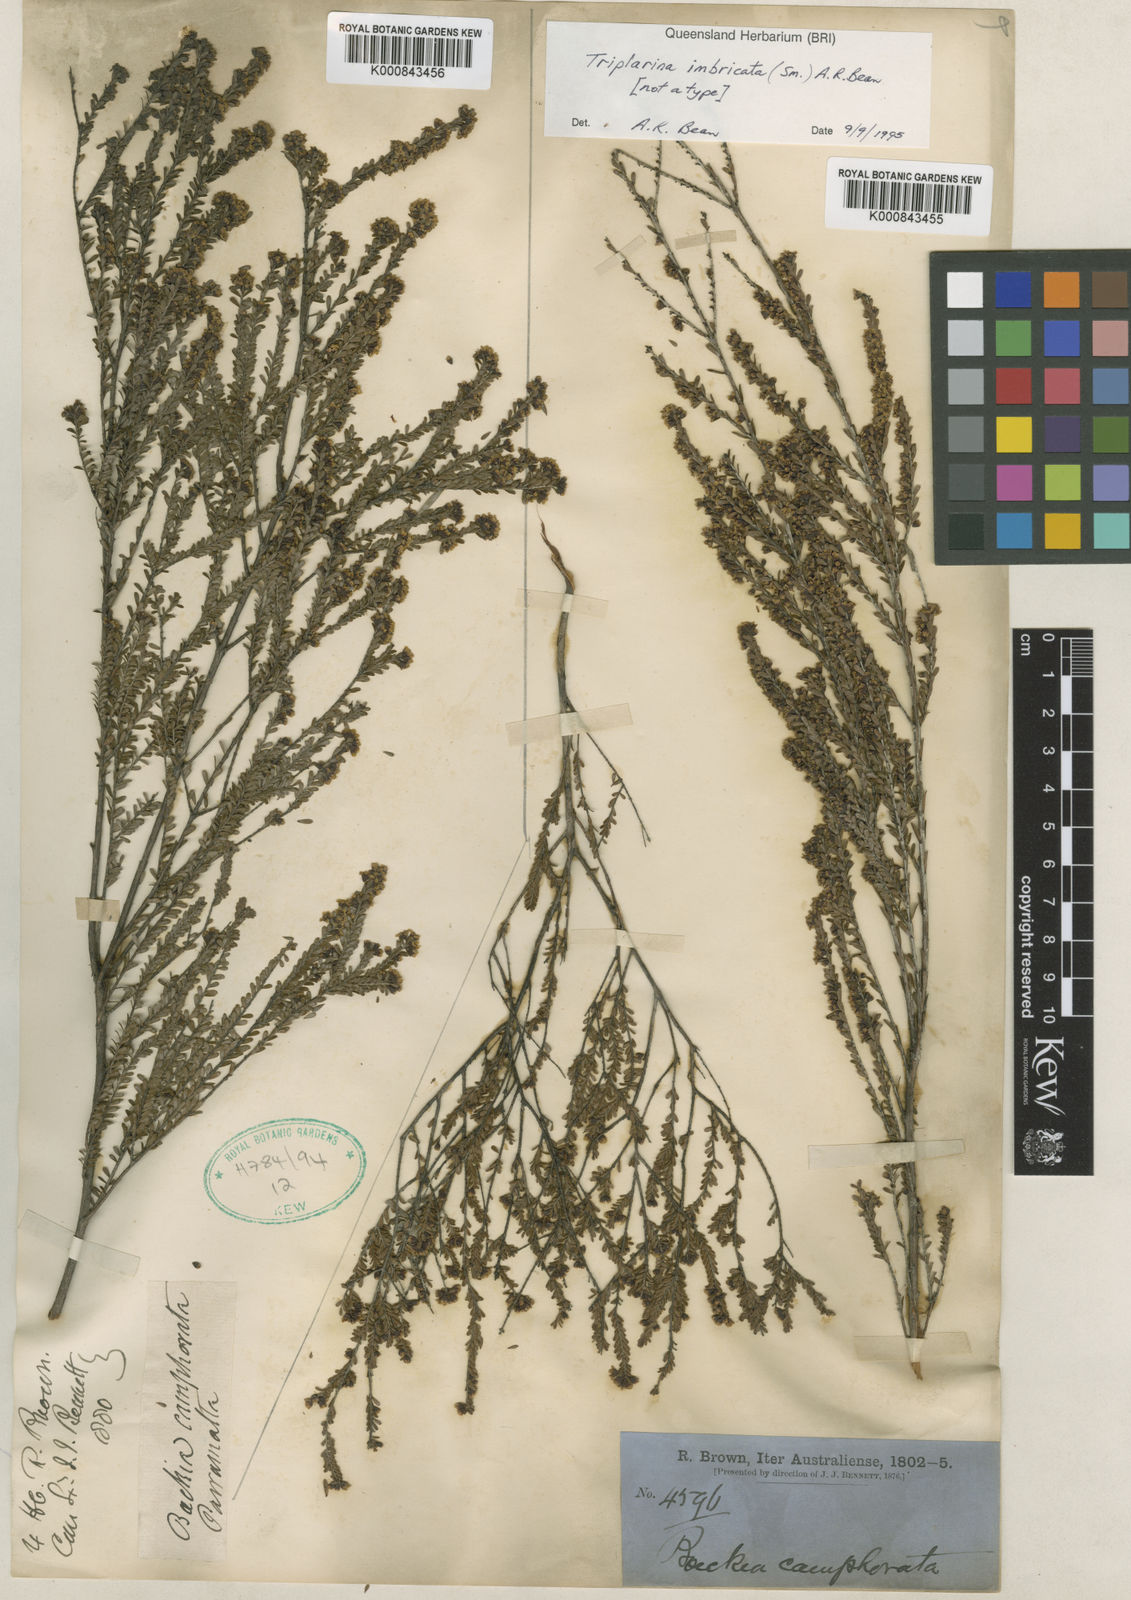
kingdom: Plantae
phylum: Tracheophyta
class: Magnoliopsida
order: Myrtales
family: Myrtaceae
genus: Triplarina
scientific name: Triplarina imbricata
